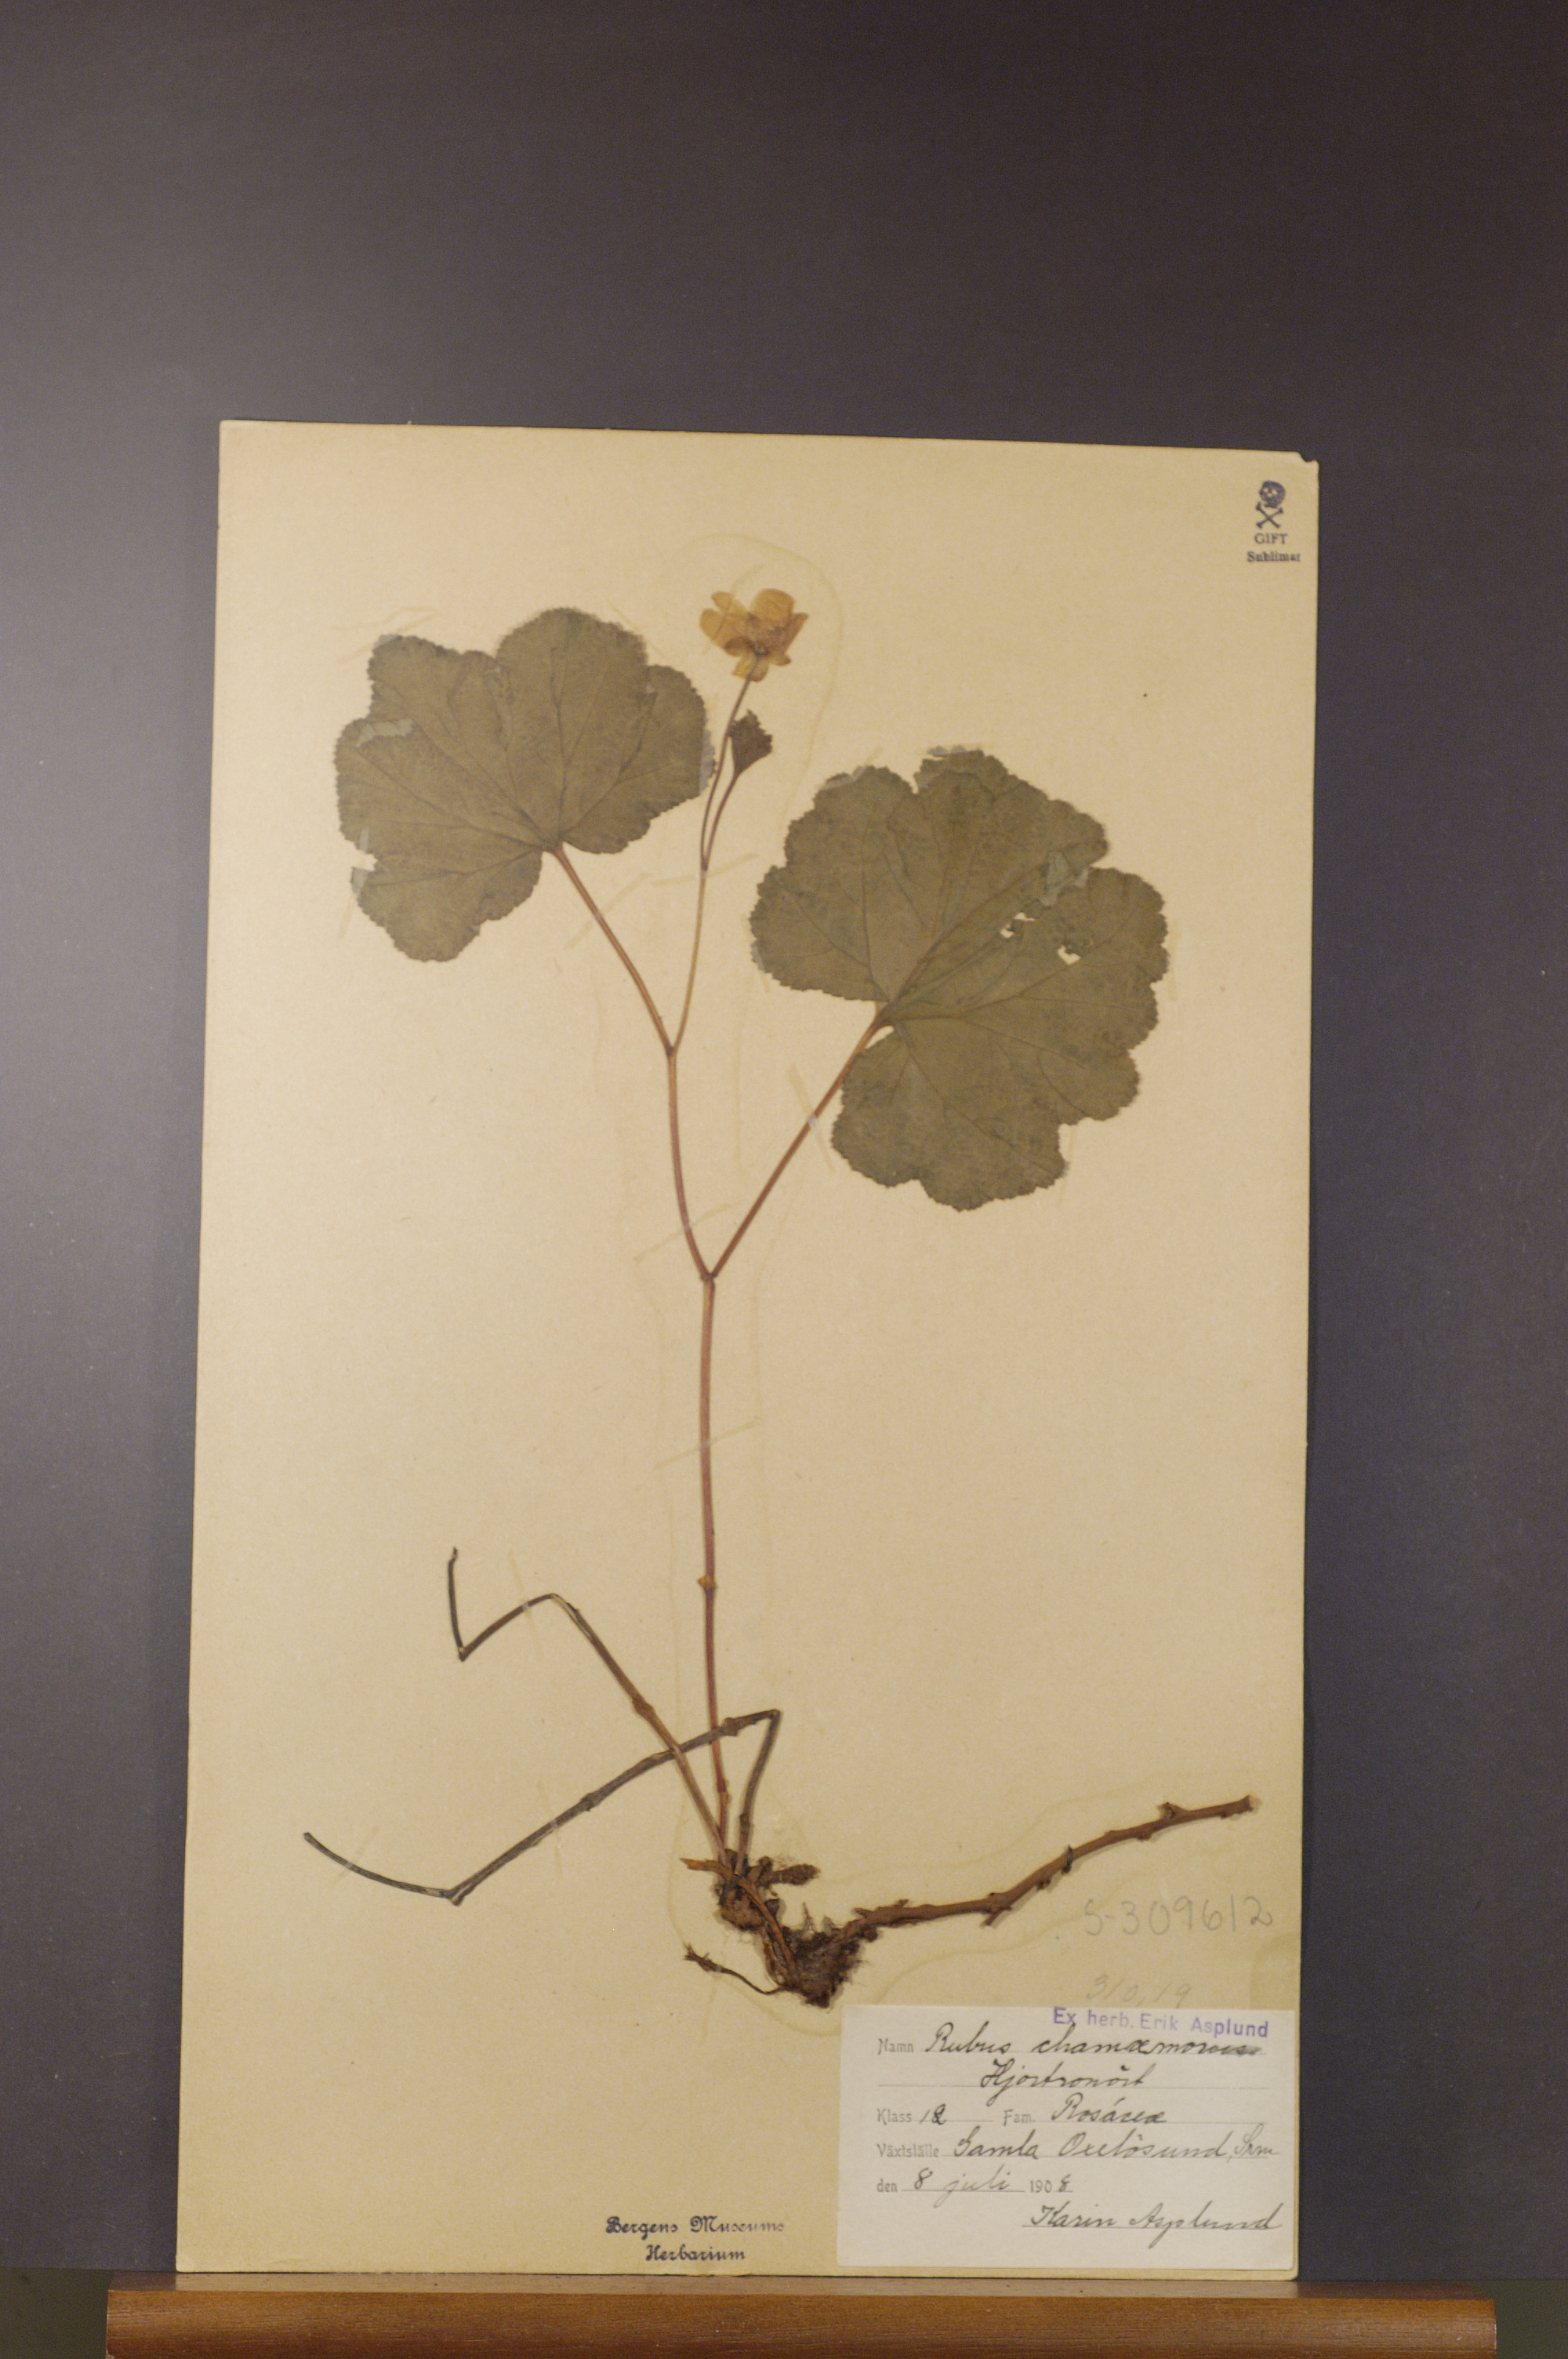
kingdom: Plantae
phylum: Tracheophyta
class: Magnoliopsida
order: Rosales
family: Rosaceae
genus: Rubus
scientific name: Rubus chamaemorus
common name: Cloudberry
